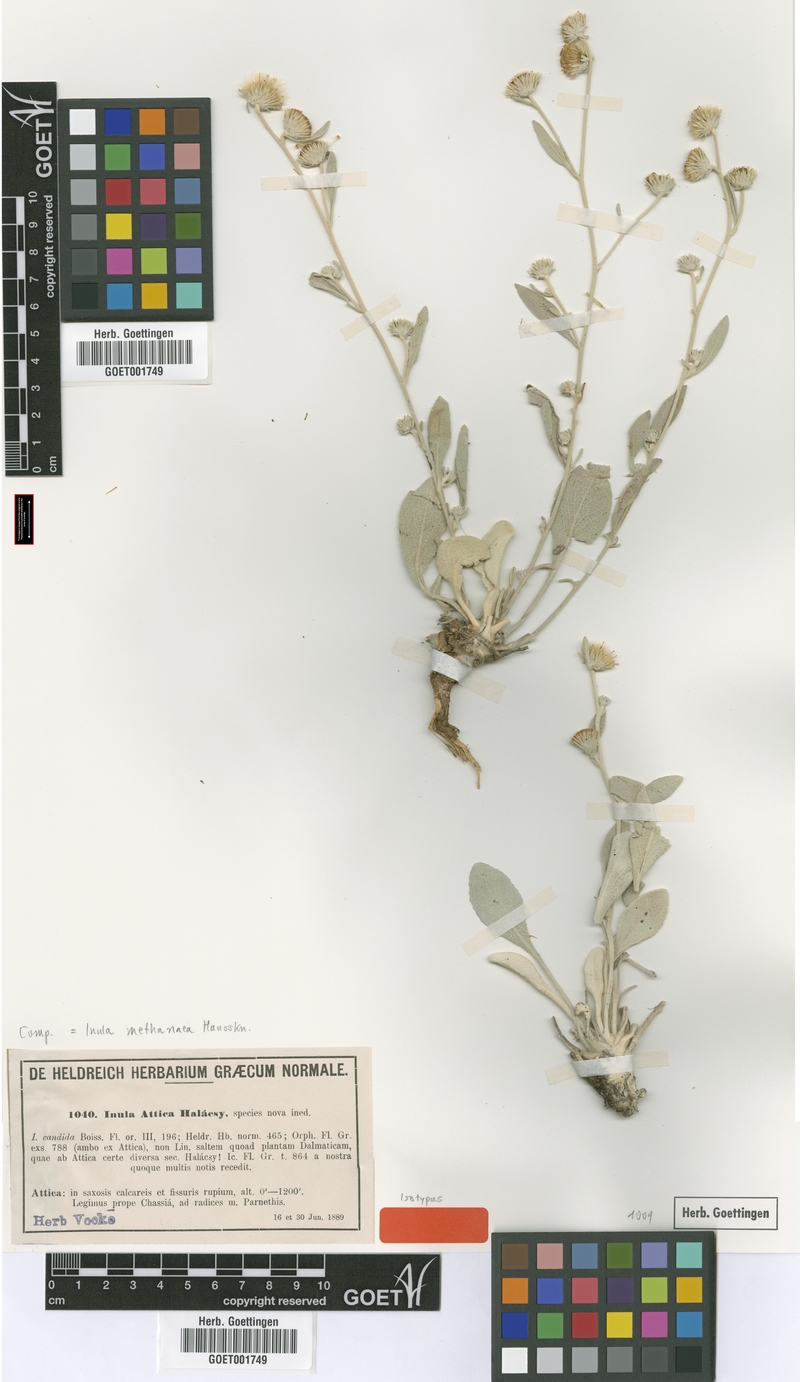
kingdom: Plantae
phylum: Tracheophyta
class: Magnoliopsida
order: Asterales
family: Asteraceae
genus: Pentanema
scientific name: Pentanema verbascifolium
